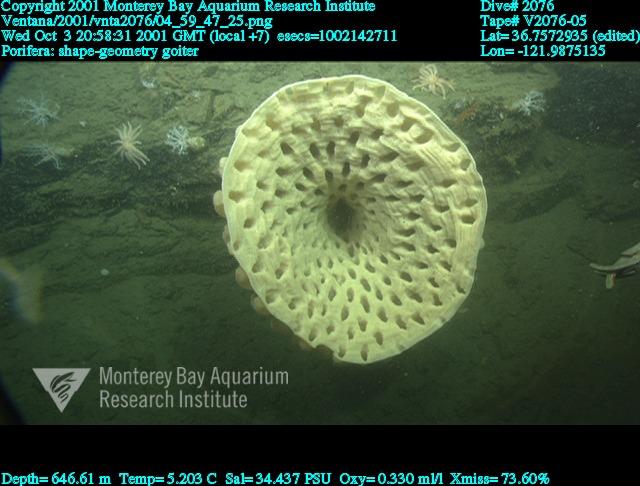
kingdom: Animalia
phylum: Porifera
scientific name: Porifera
